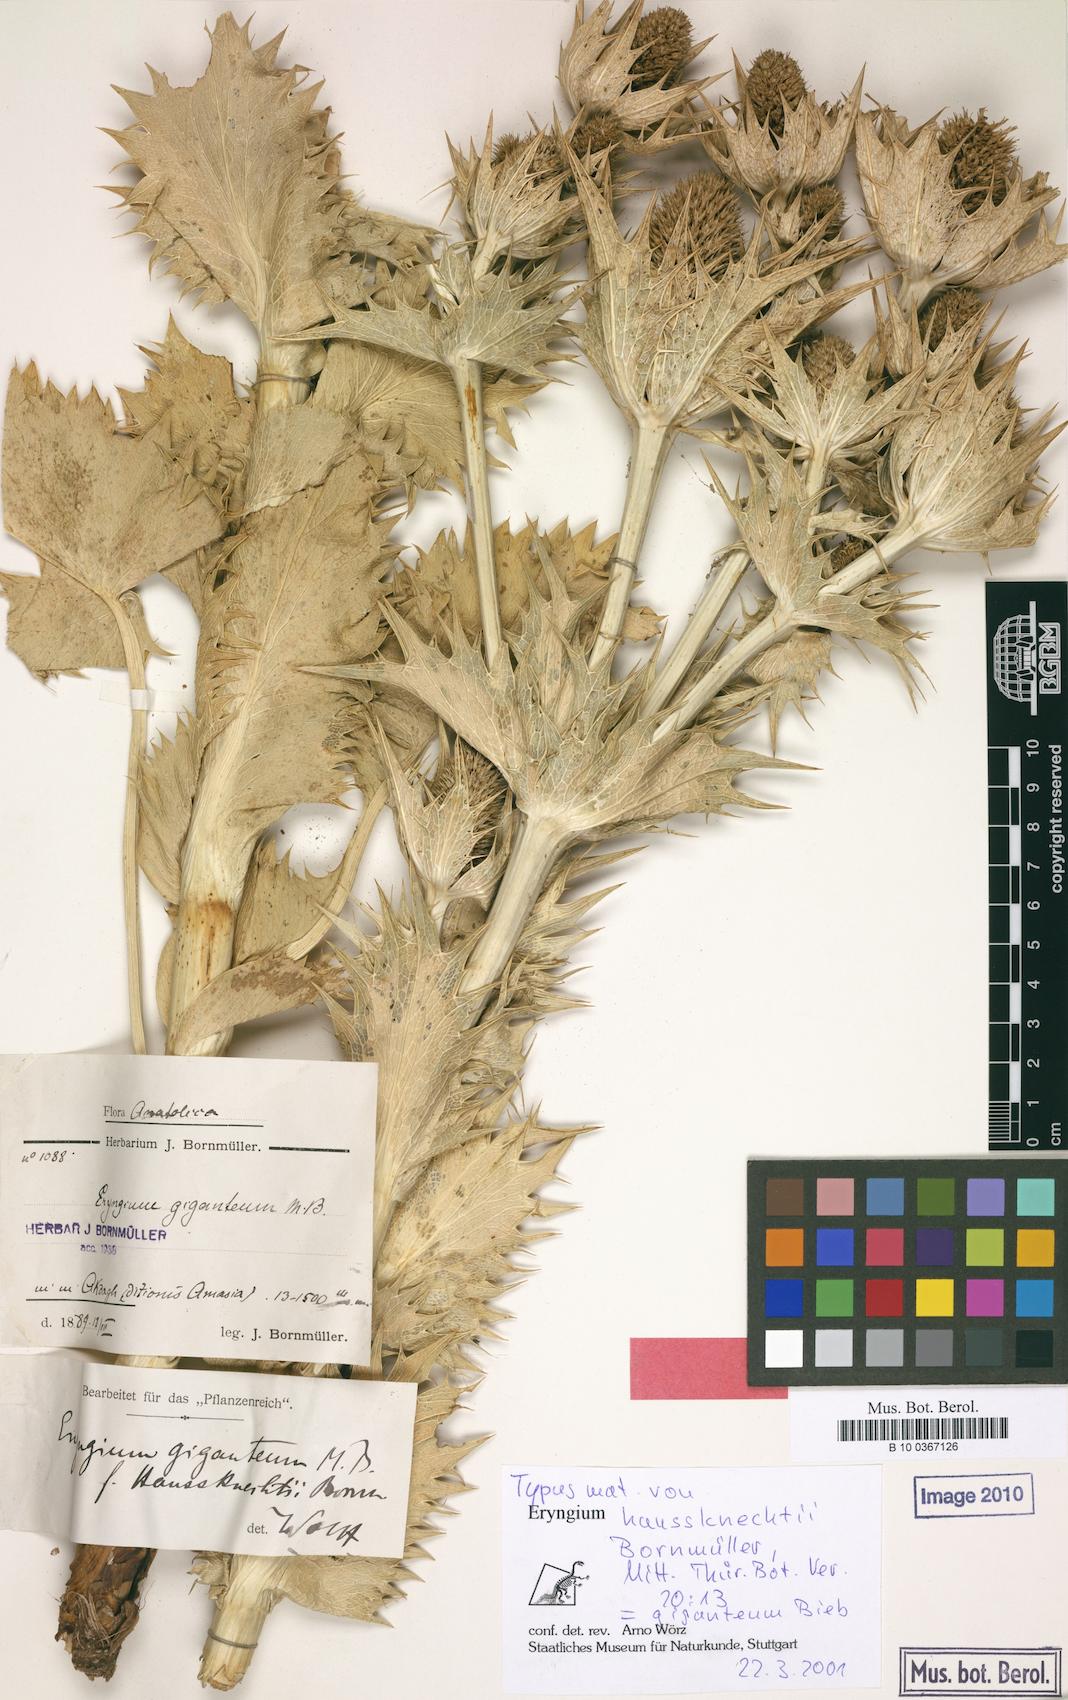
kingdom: Plantae
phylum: Tracheophyta
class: Magnoliopsida
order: Apiales
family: Apiaceae
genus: Eryngium
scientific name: Eryngium giganteum
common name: Tall eryngo
